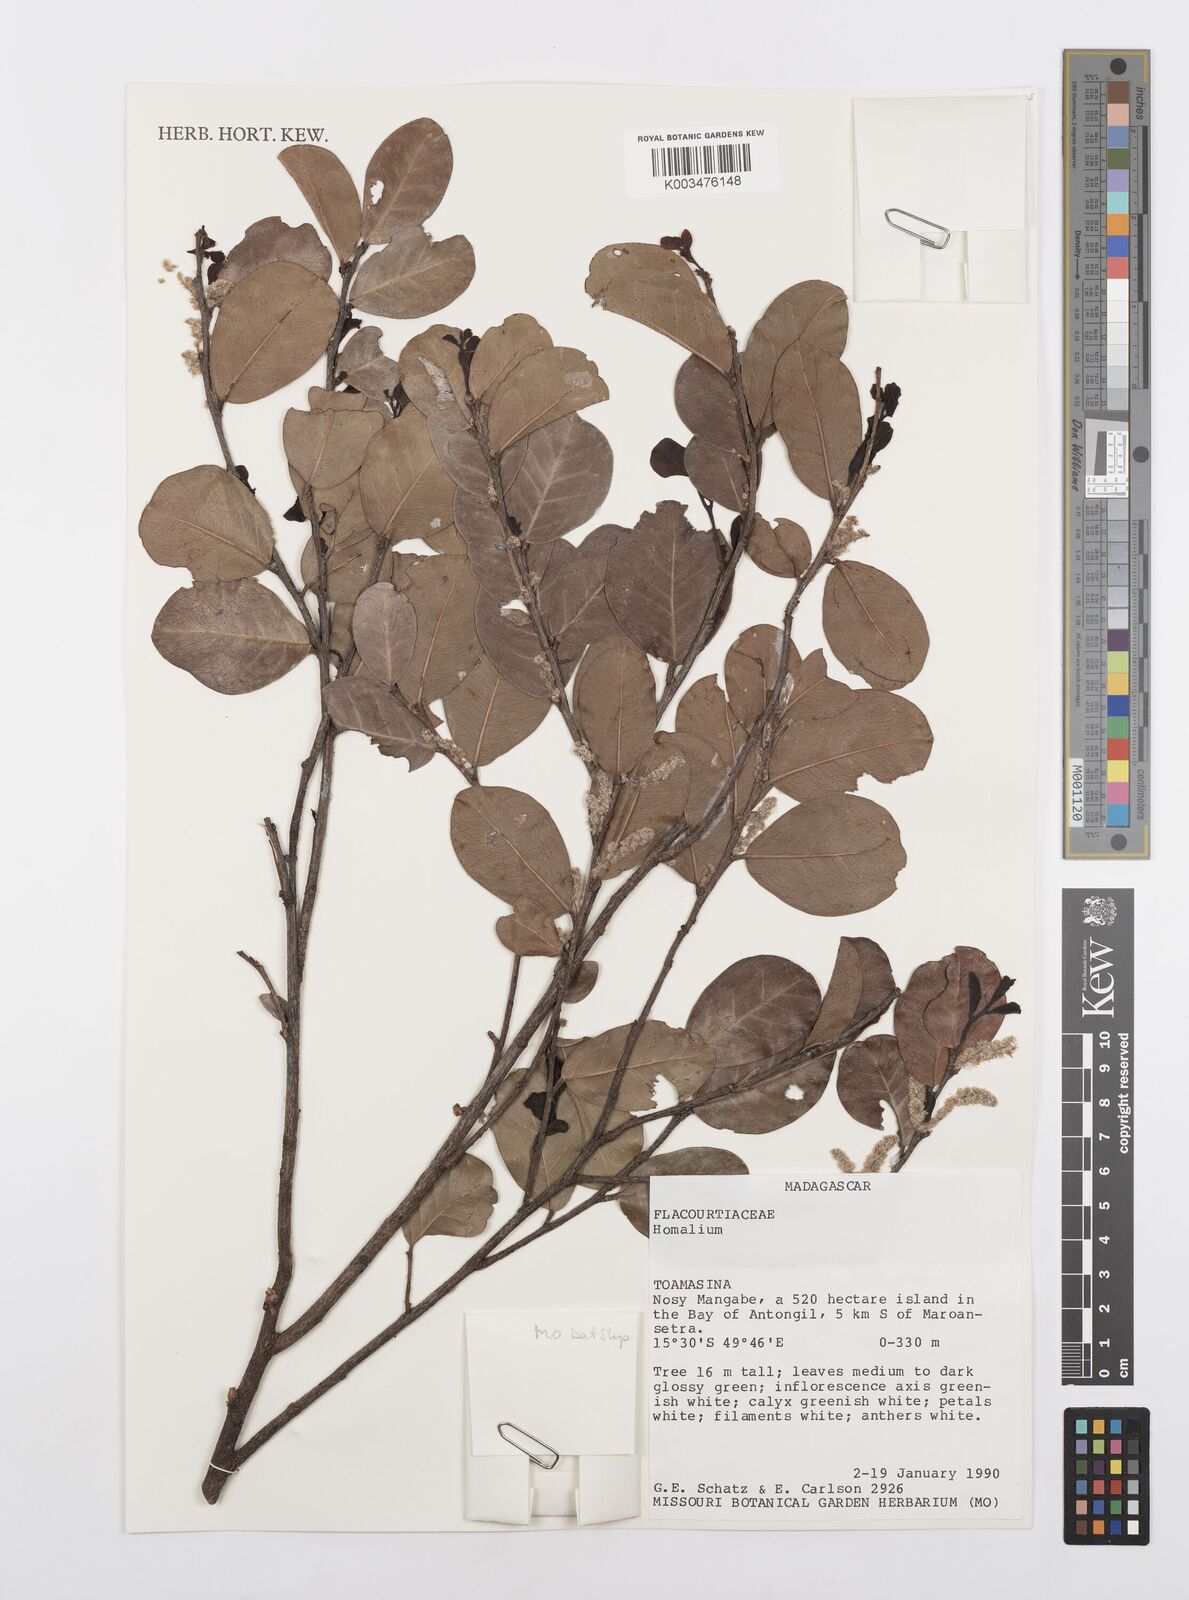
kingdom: Plantae
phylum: Tracheophyta
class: Magnoliopsida
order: Malpighiales
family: Salicaceae
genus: Homalium
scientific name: Homalium
